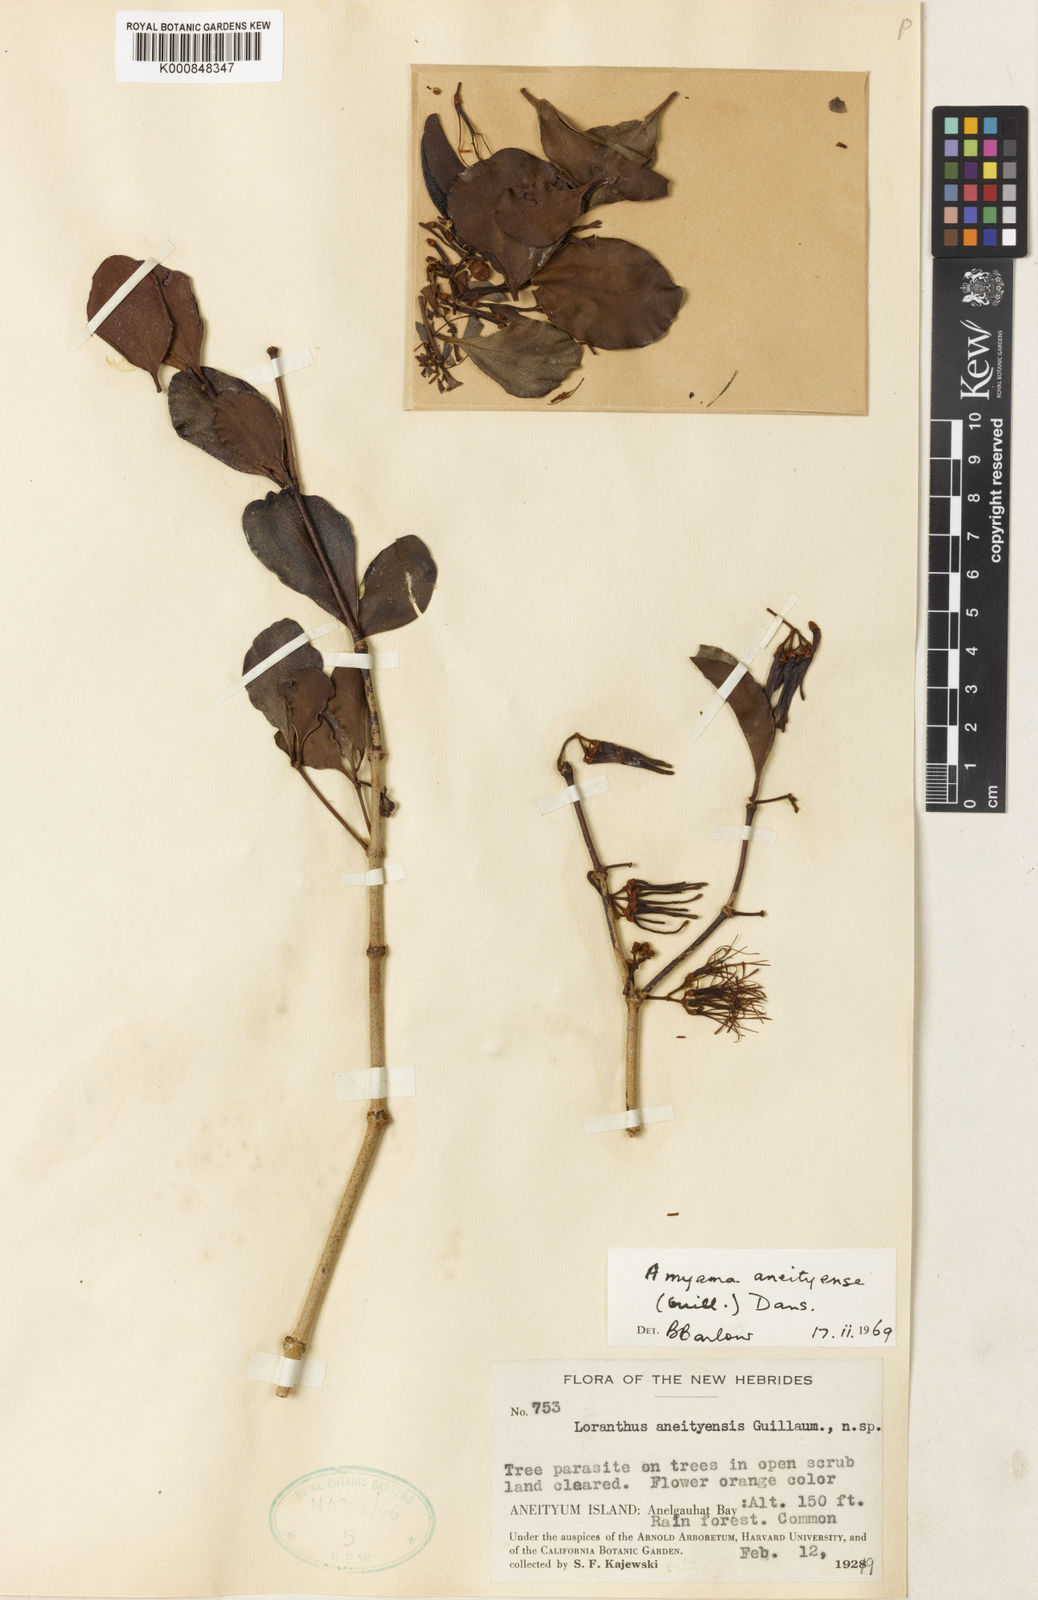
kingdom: Plantae
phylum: Tracheophyta
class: Magnoliopsida
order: Santalales
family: Loranthaceae
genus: Amyema
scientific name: Amyema artensis
